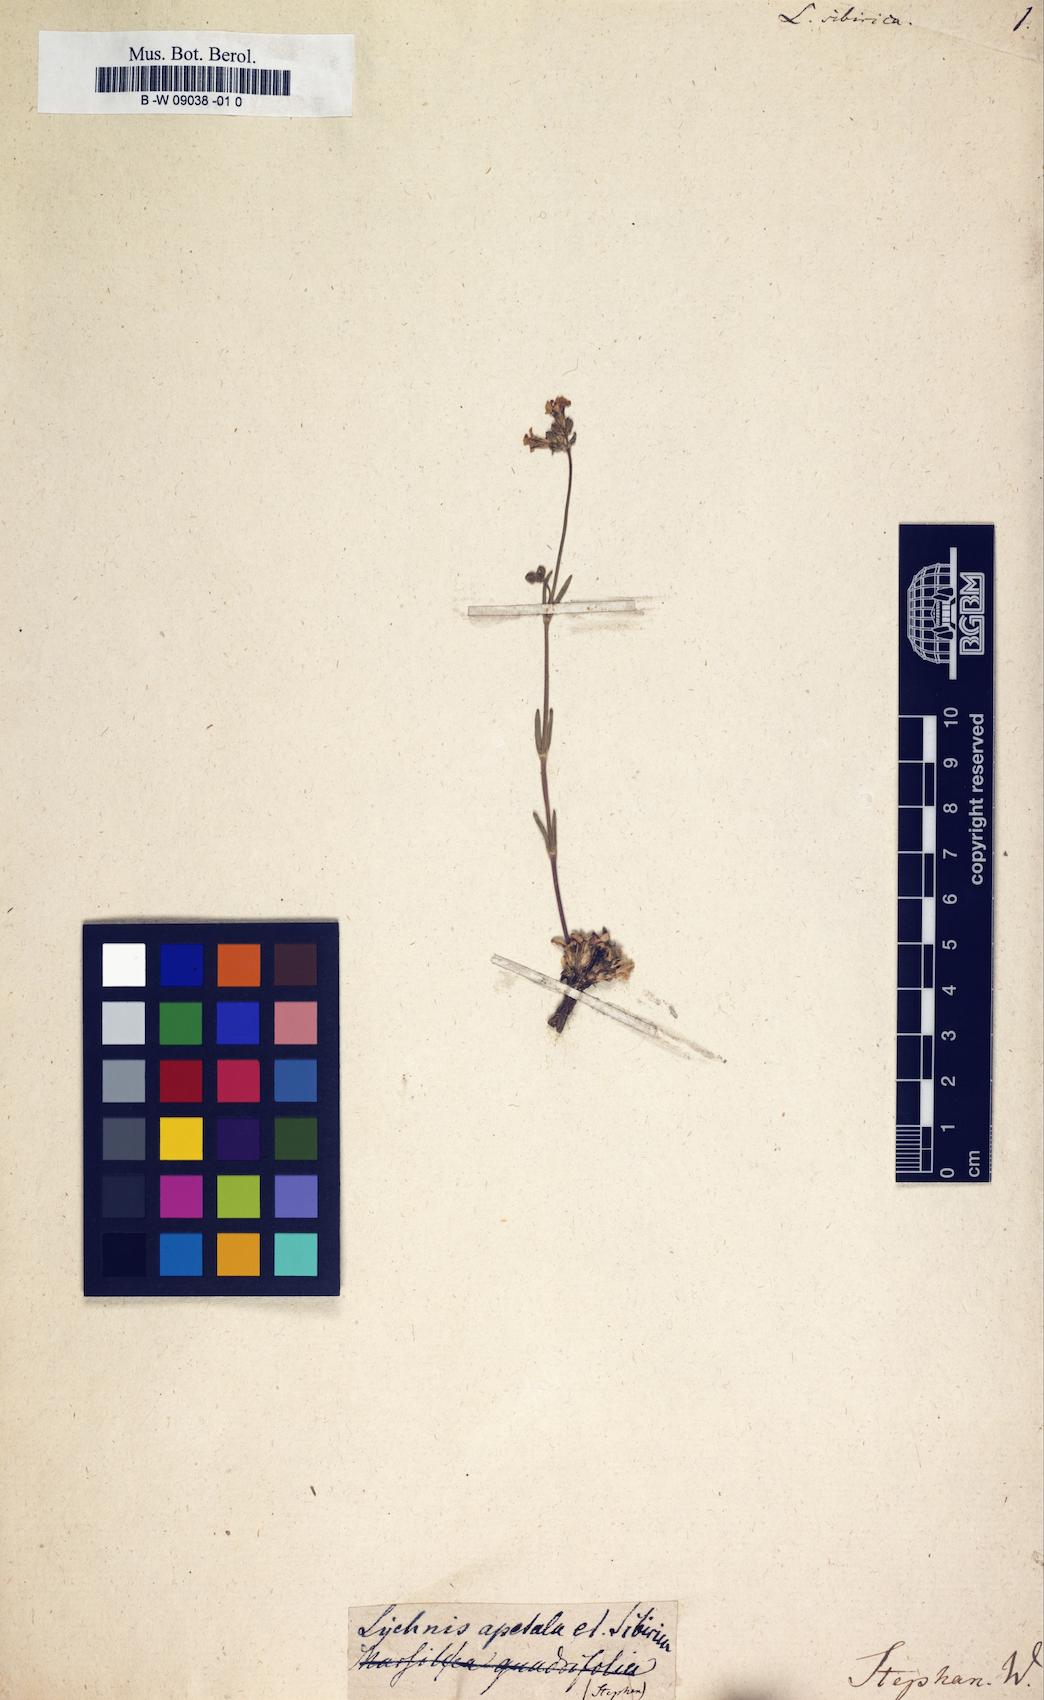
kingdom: Plantae
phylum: Tracheophyta
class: Magnoliopsida
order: Caryophyllales
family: Caryophyllaceae
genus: Silene
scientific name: Silene orientalimongolica
